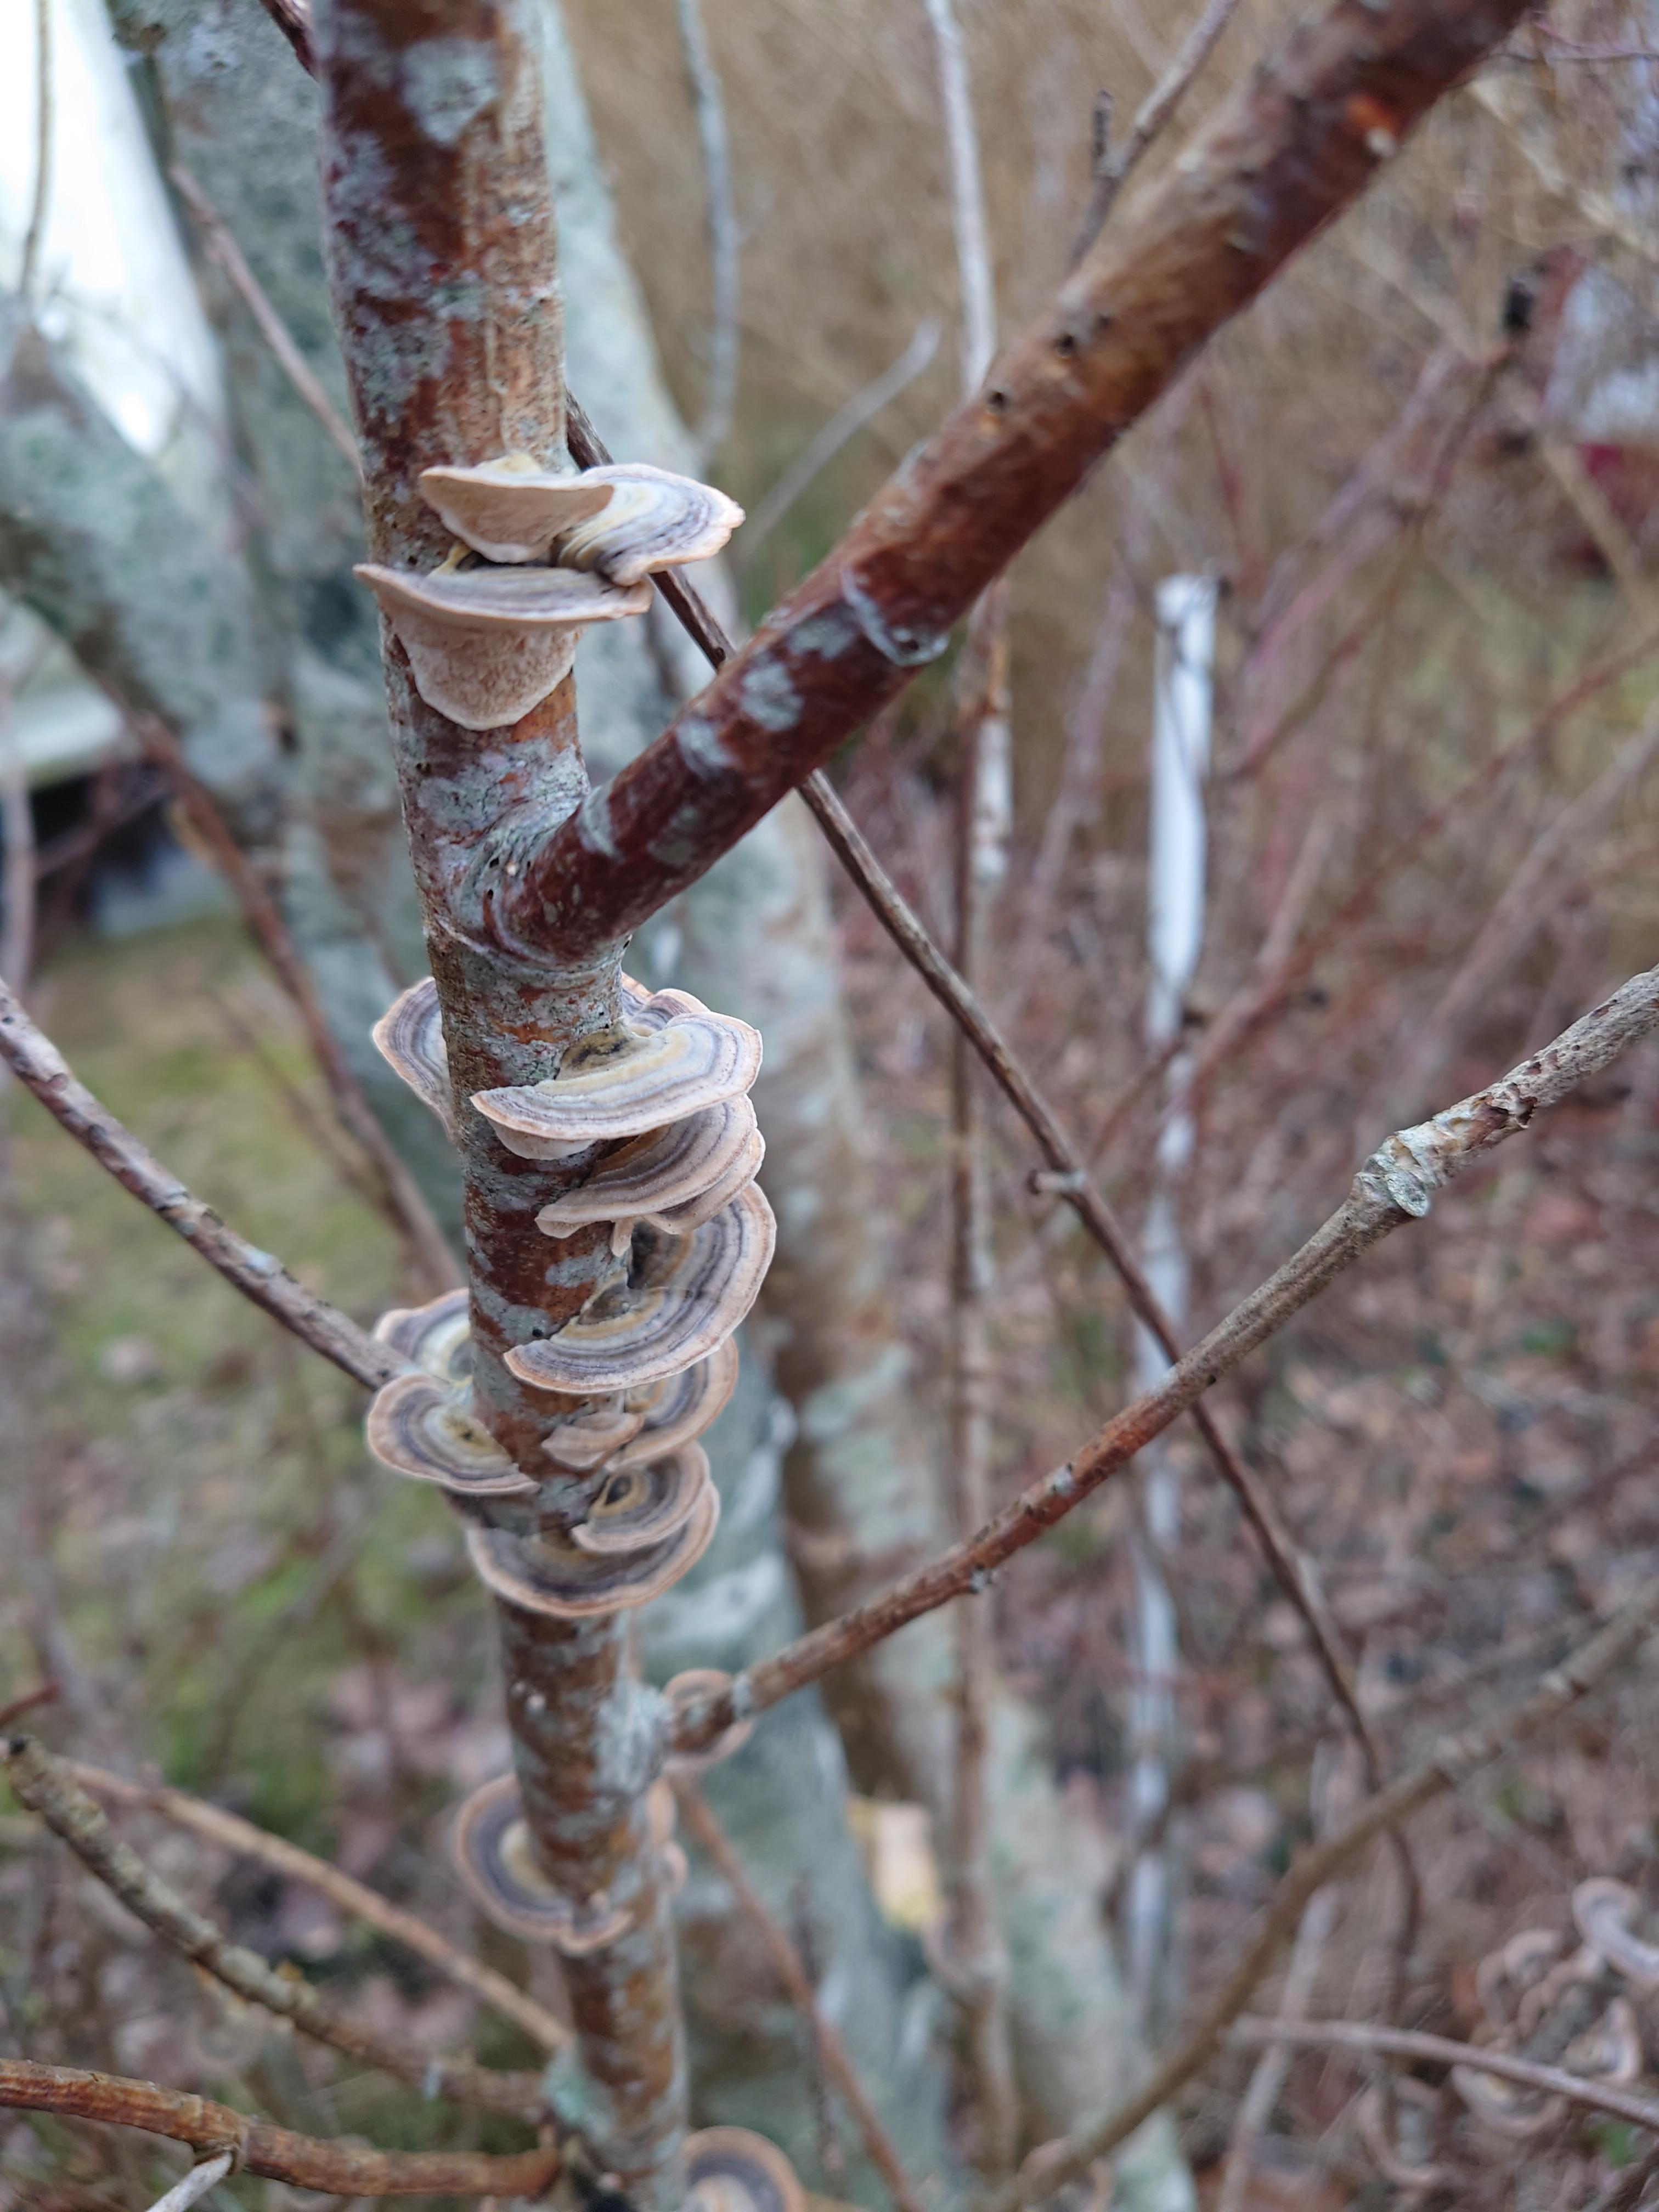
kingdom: Fungi
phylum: Basidiomycota
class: Agaricomycetes
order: Polyporales
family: Polyporaceae
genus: Trametes
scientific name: Trametes versicolor
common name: broget læderporesvamp
